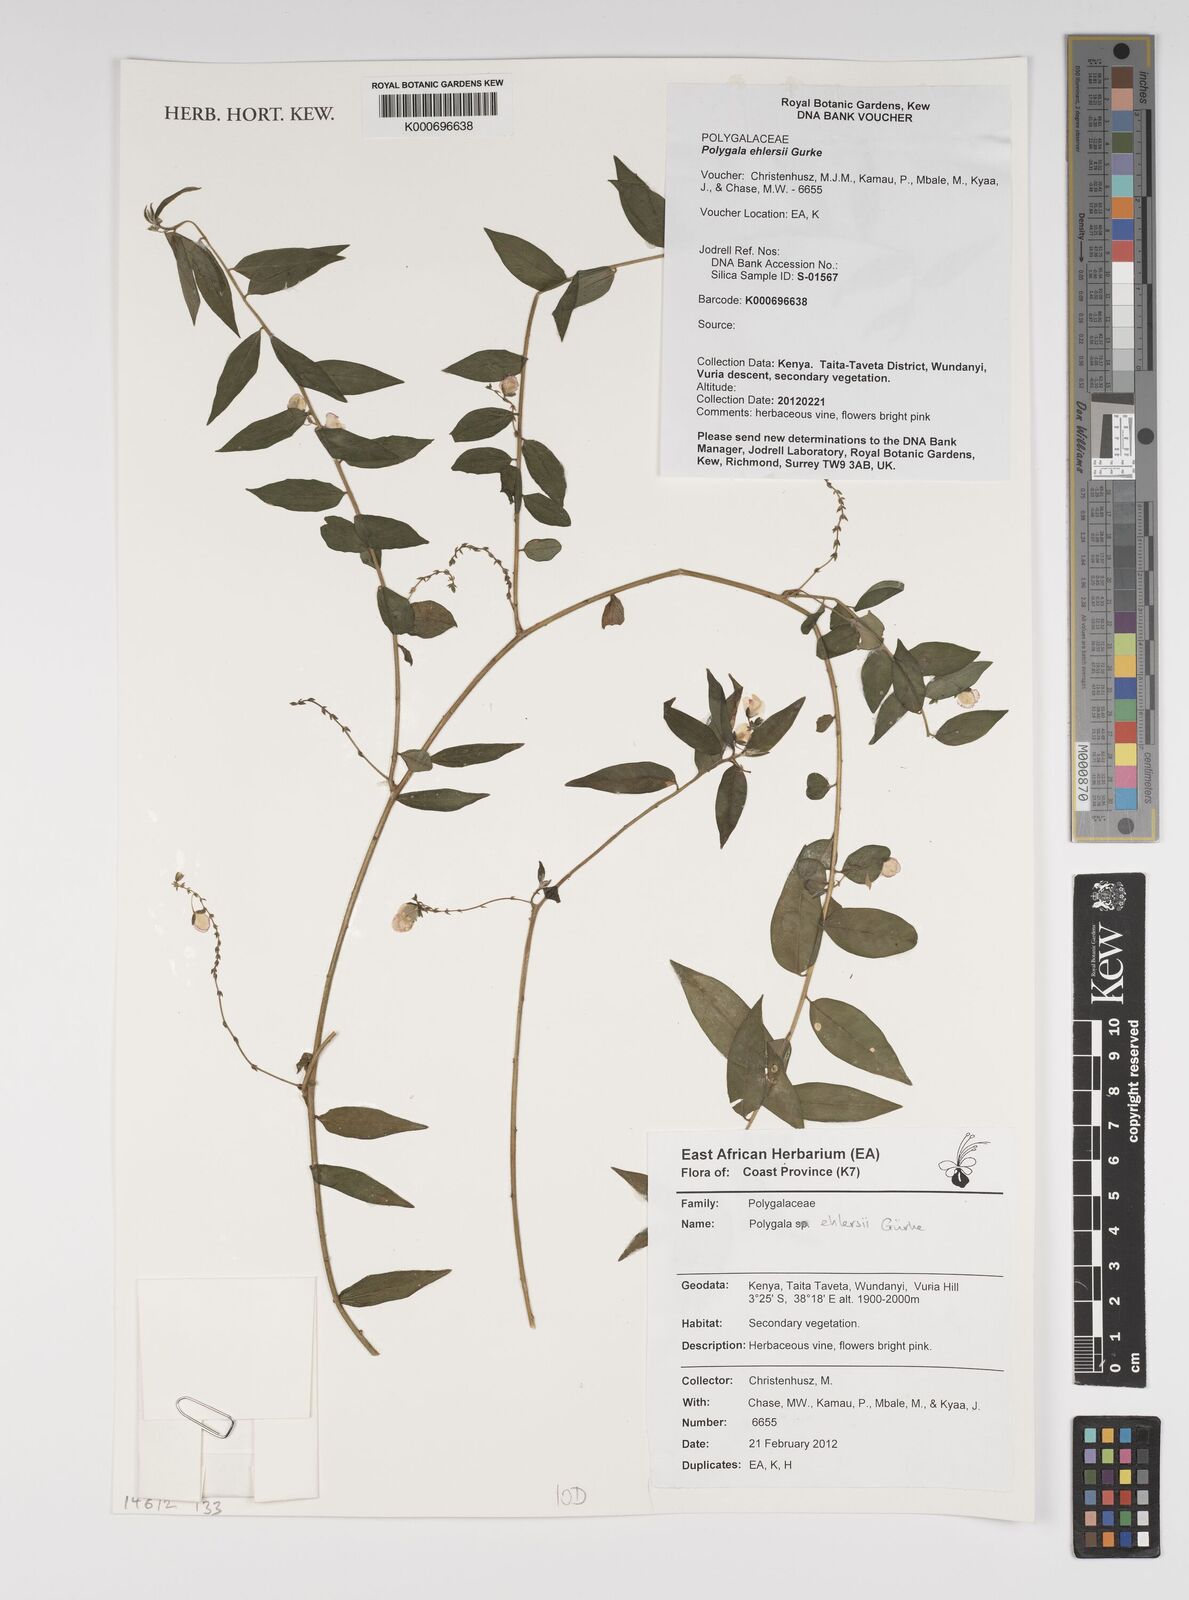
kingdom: Plantae
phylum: Tracheophyta
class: Magnoliopsida
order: Fabales
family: Polygalaceae
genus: Polygala
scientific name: Polygala ehlersii
